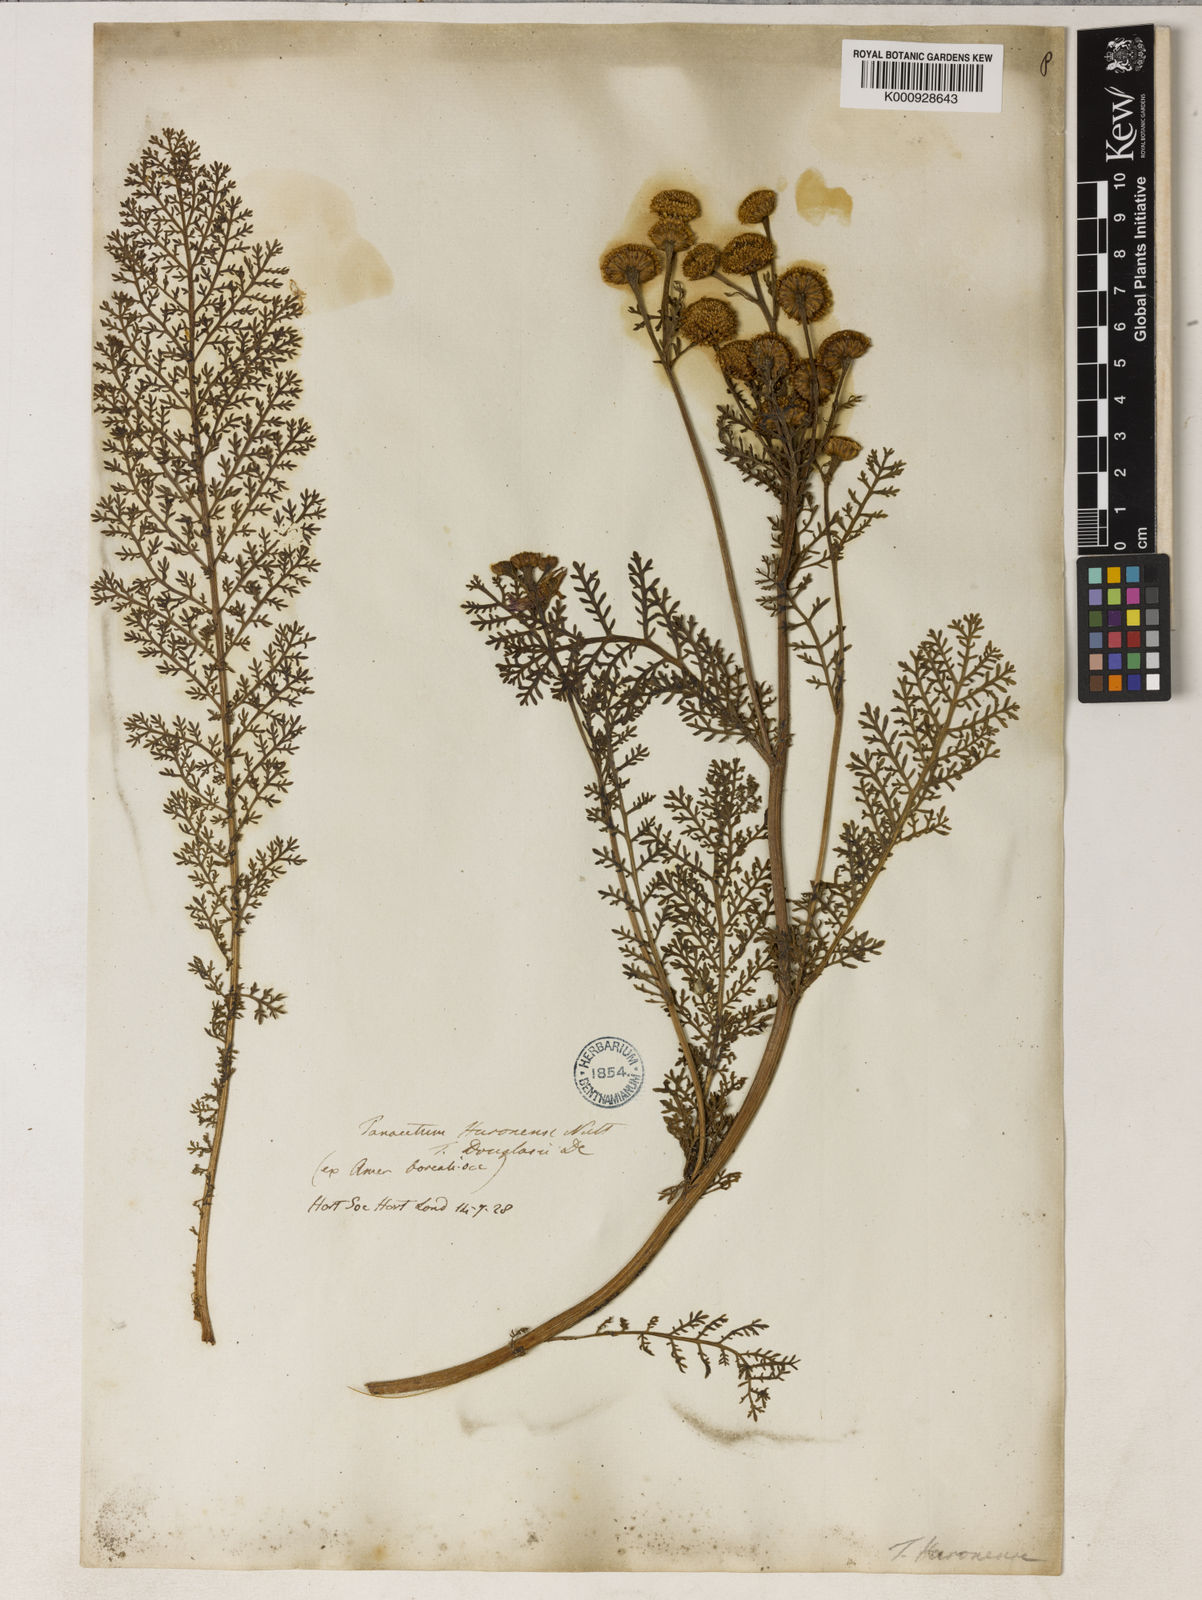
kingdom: Plantae
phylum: Tracheophyta
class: Magnoliopsida
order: Asterales
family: Asteraceae
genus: Tanacetum
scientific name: Tanacetum bipinnatum
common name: Dwarf tansy
